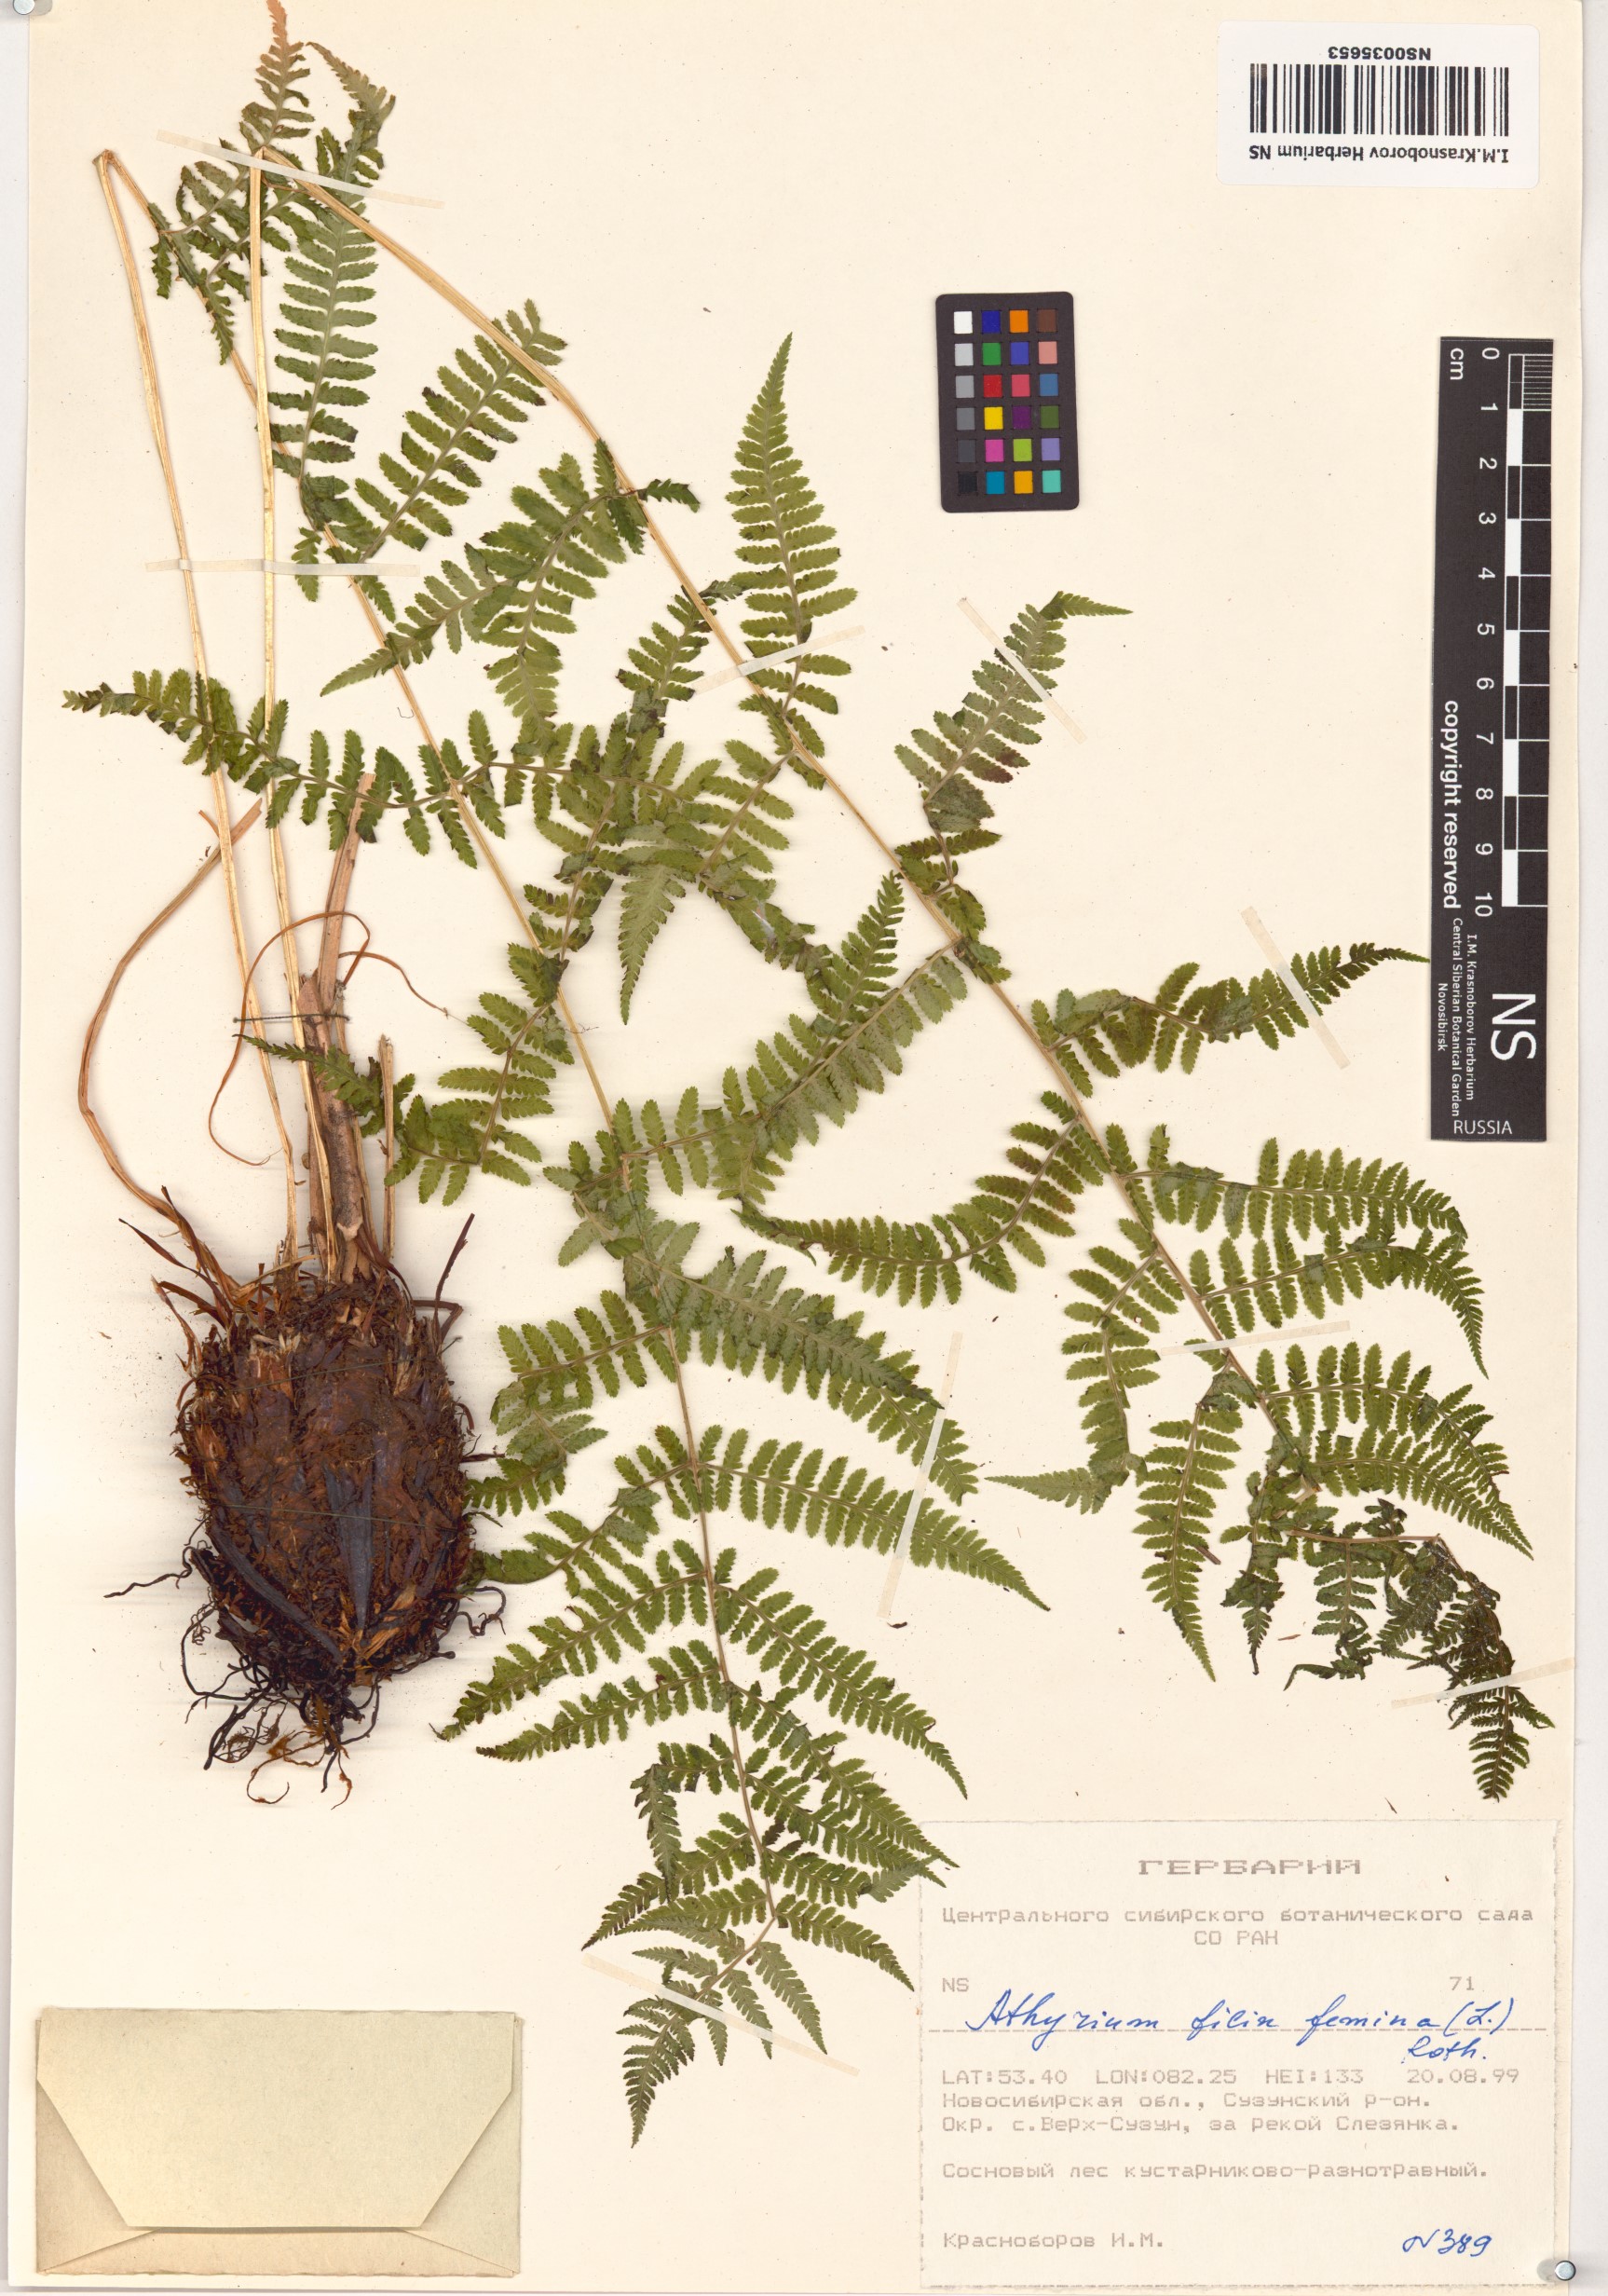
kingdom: Plantae
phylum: Tracheophyta
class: Polypodiopsida
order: Polypodiales
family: Athyriaceae
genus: Athyrium
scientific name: Athyrium filix-femina
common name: Lady fern
